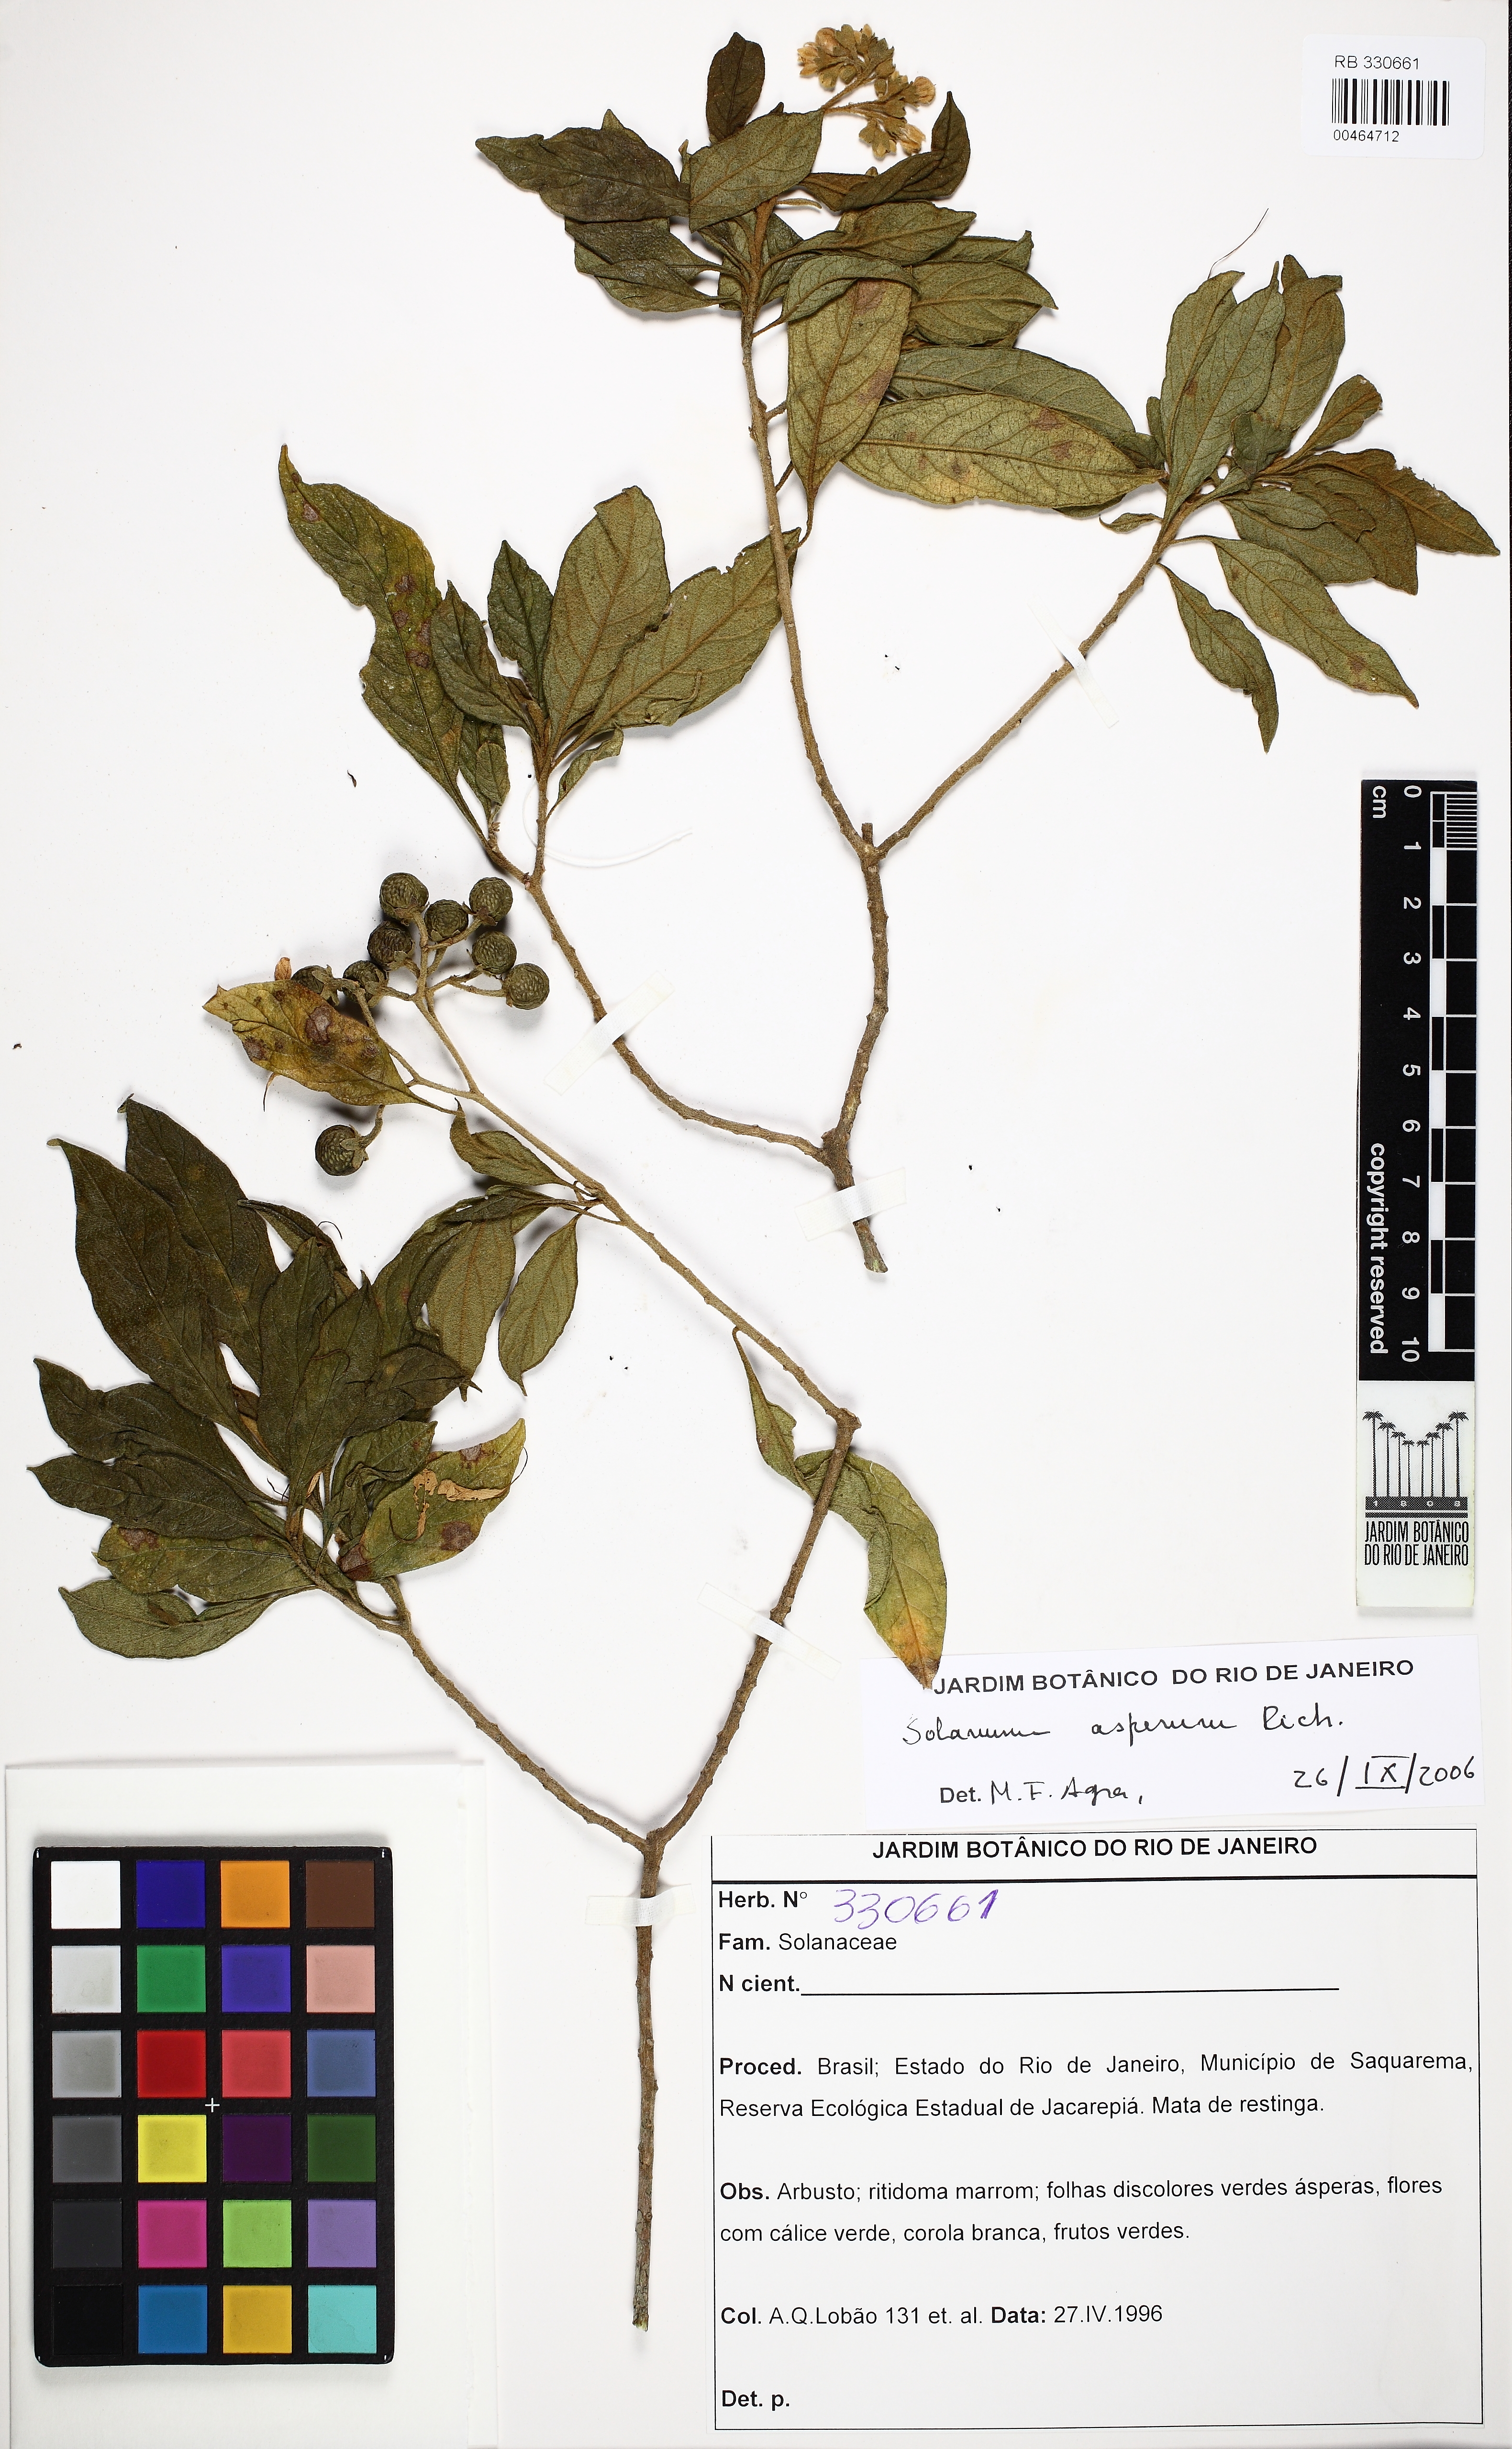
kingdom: Plantae
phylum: Tracheophyta
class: Magnoliopsida
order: Solanales
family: Solanaceae
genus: Solanum
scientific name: Solanum asperum
